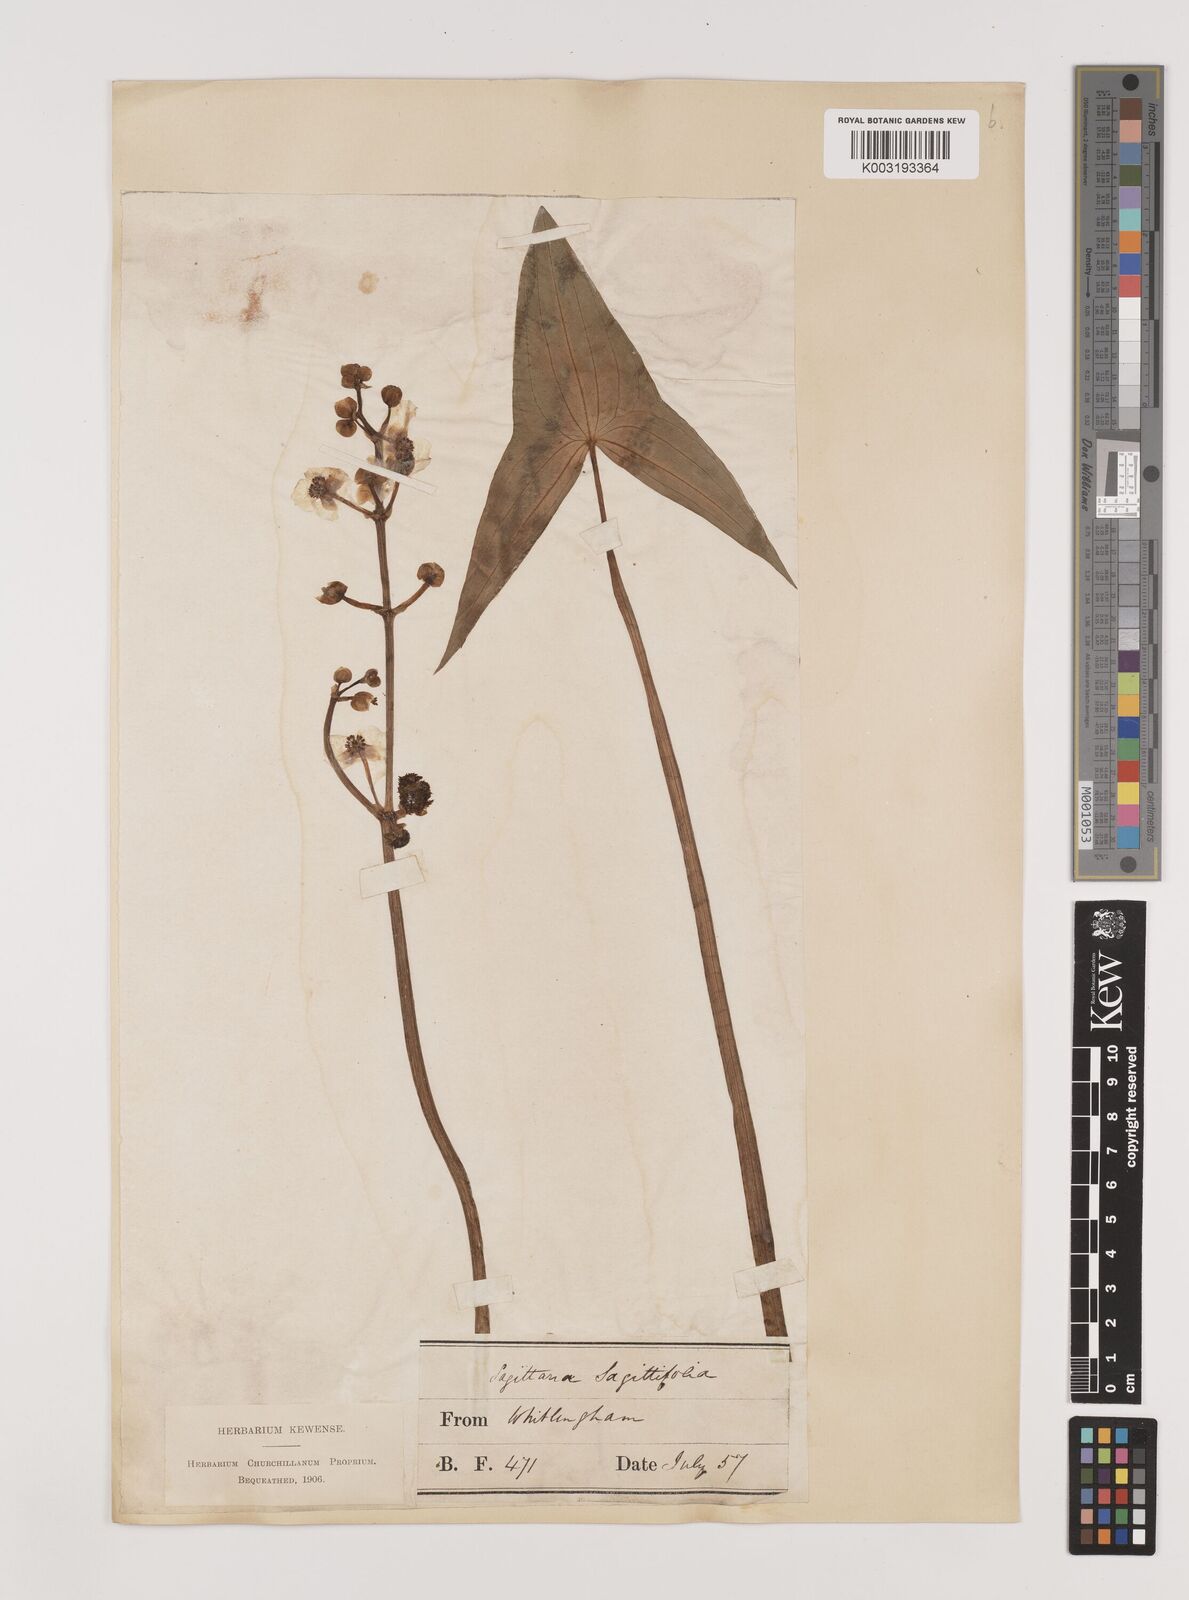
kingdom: Plantae
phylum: Tracheophyta
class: Liliopsida
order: Alismatales
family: Alismataceae
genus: Sagittaria
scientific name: Sagittaria sagittifolia
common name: Arrowhead
